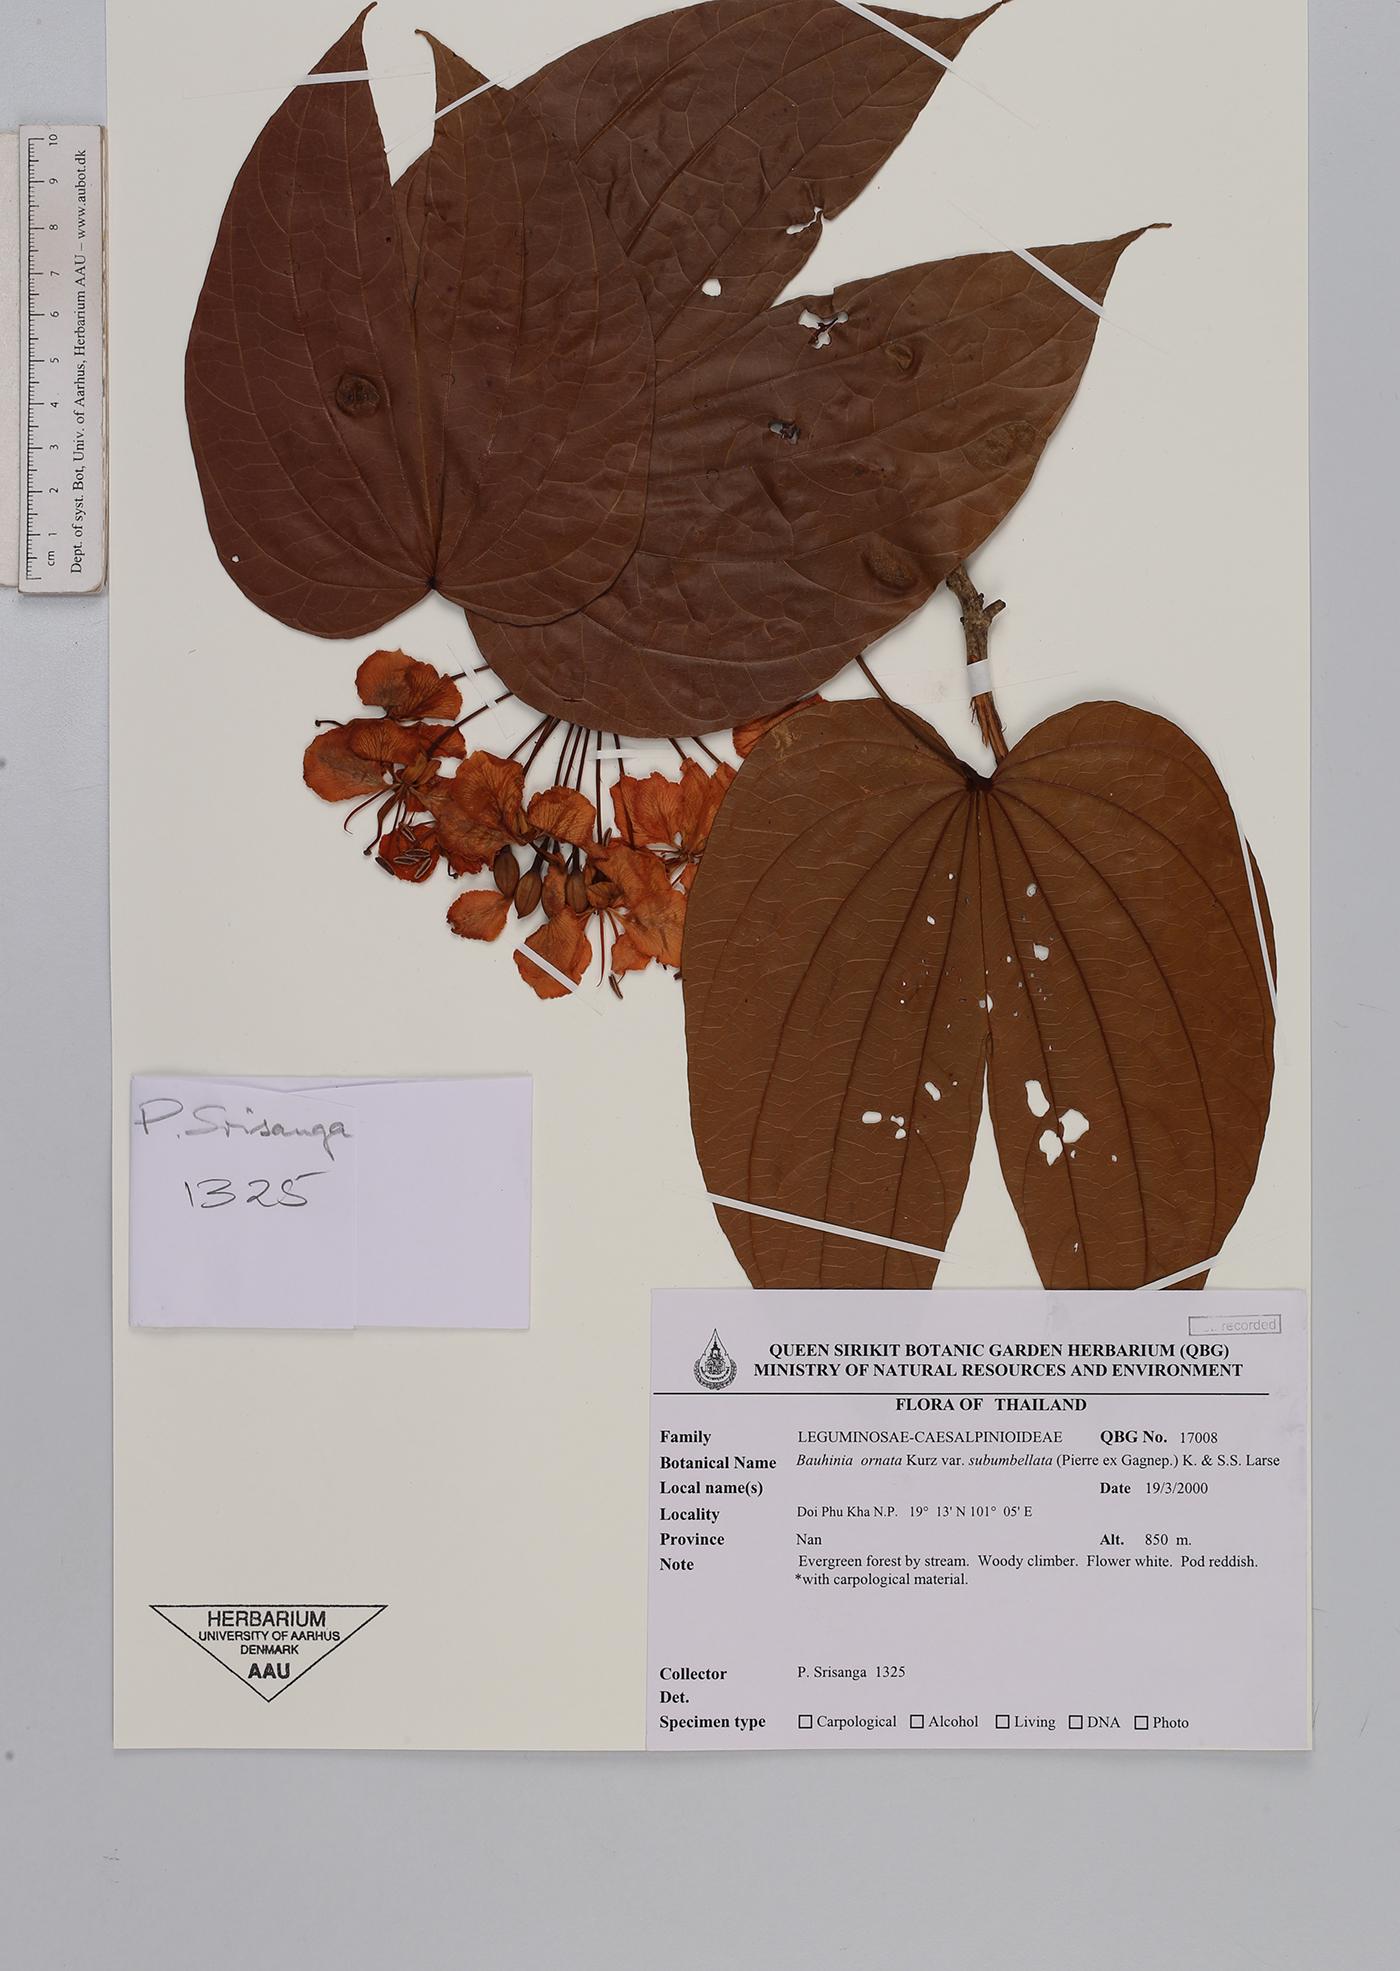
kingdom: Plantae
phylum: Tracheophyta
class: Magnoliopsida
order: Fabales
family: Fabaceae
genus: Phanera
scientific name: Phanera ornata
